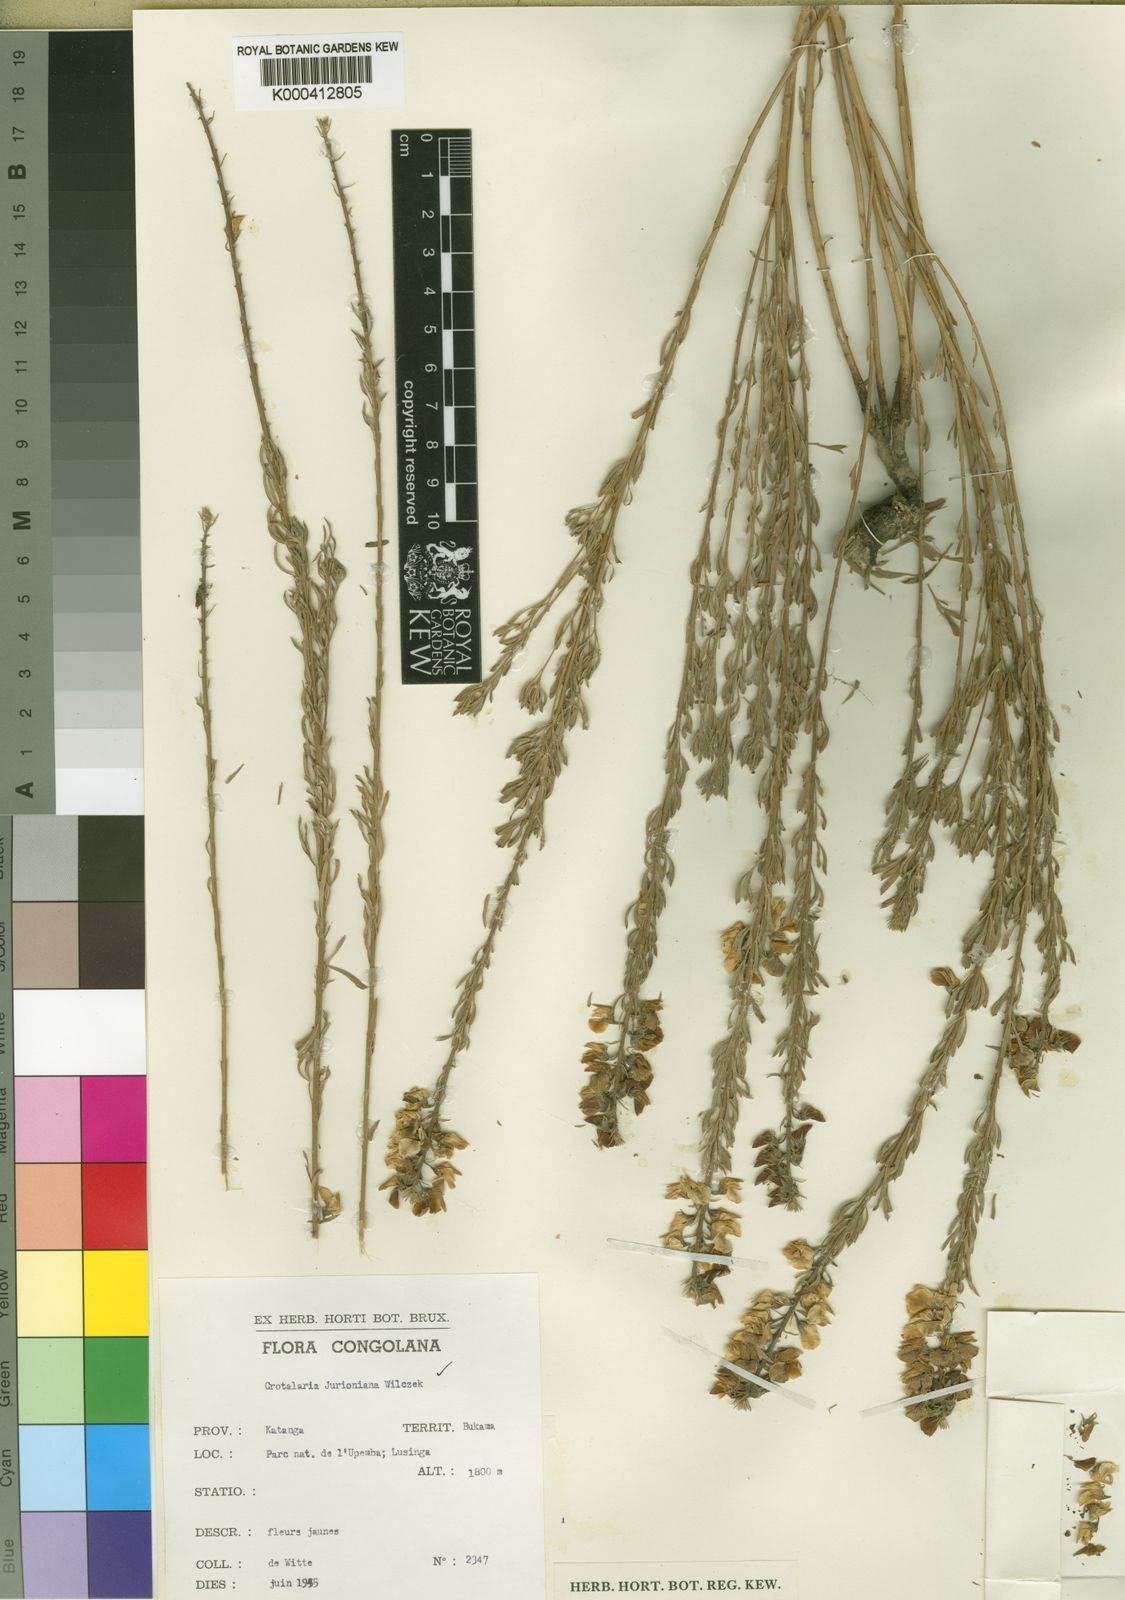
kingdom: Plantae
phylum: Tracheophyta
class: Magnoliopsida
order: Fabales
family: Fabaceae
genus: Crotalaria
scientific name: Crotalaria jurioniana
